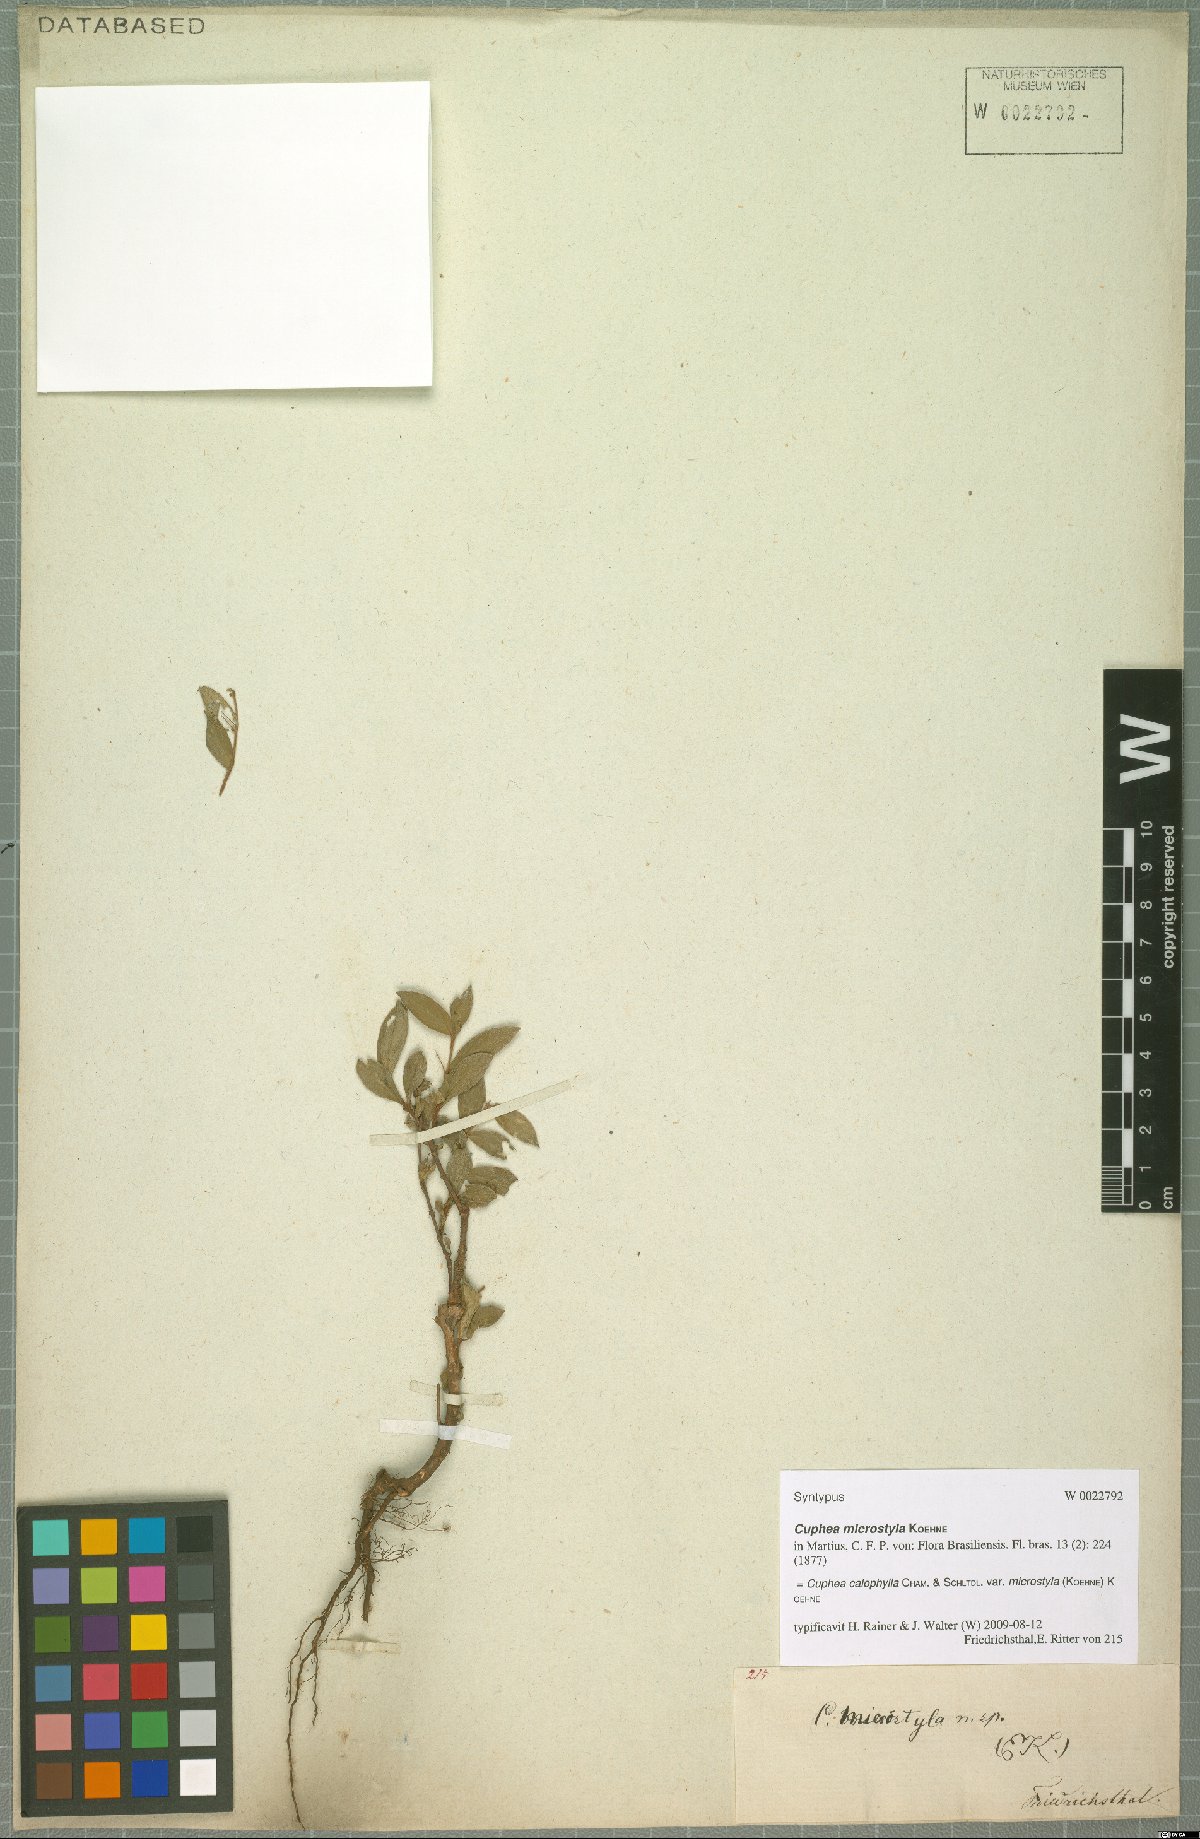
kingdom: Plantae
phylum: Tracheophyta
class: Magnoliopsida
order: Myrtales
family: Lythraceae
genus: Cuphea
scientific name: Cuphea calophylla
